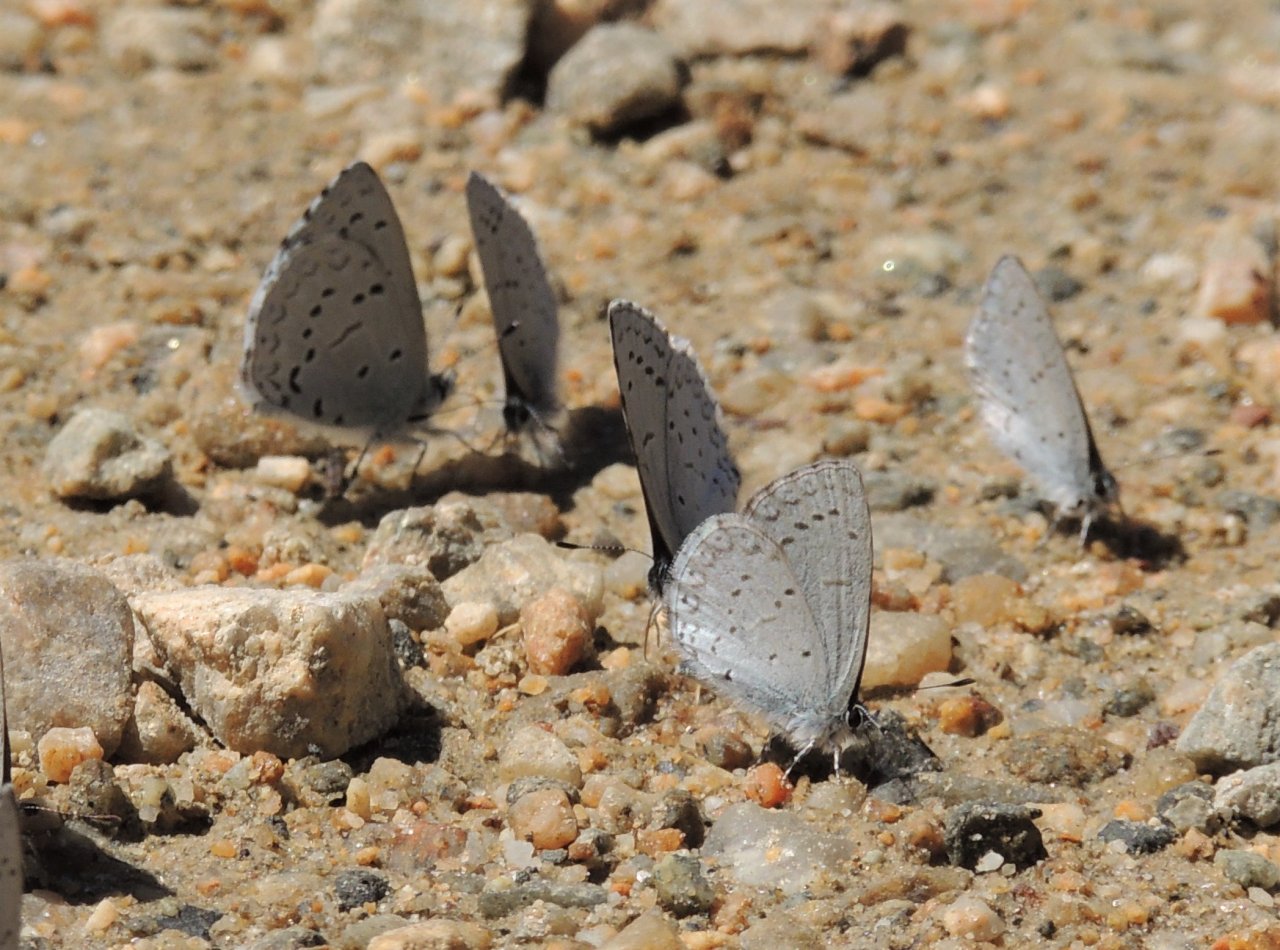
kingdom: Animalia
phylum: Arthropoda
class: Insecta
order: Lepidoptera
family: Lycaenidae
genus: Celastrina
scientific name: Celastrina ladon
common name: Echo Azure
